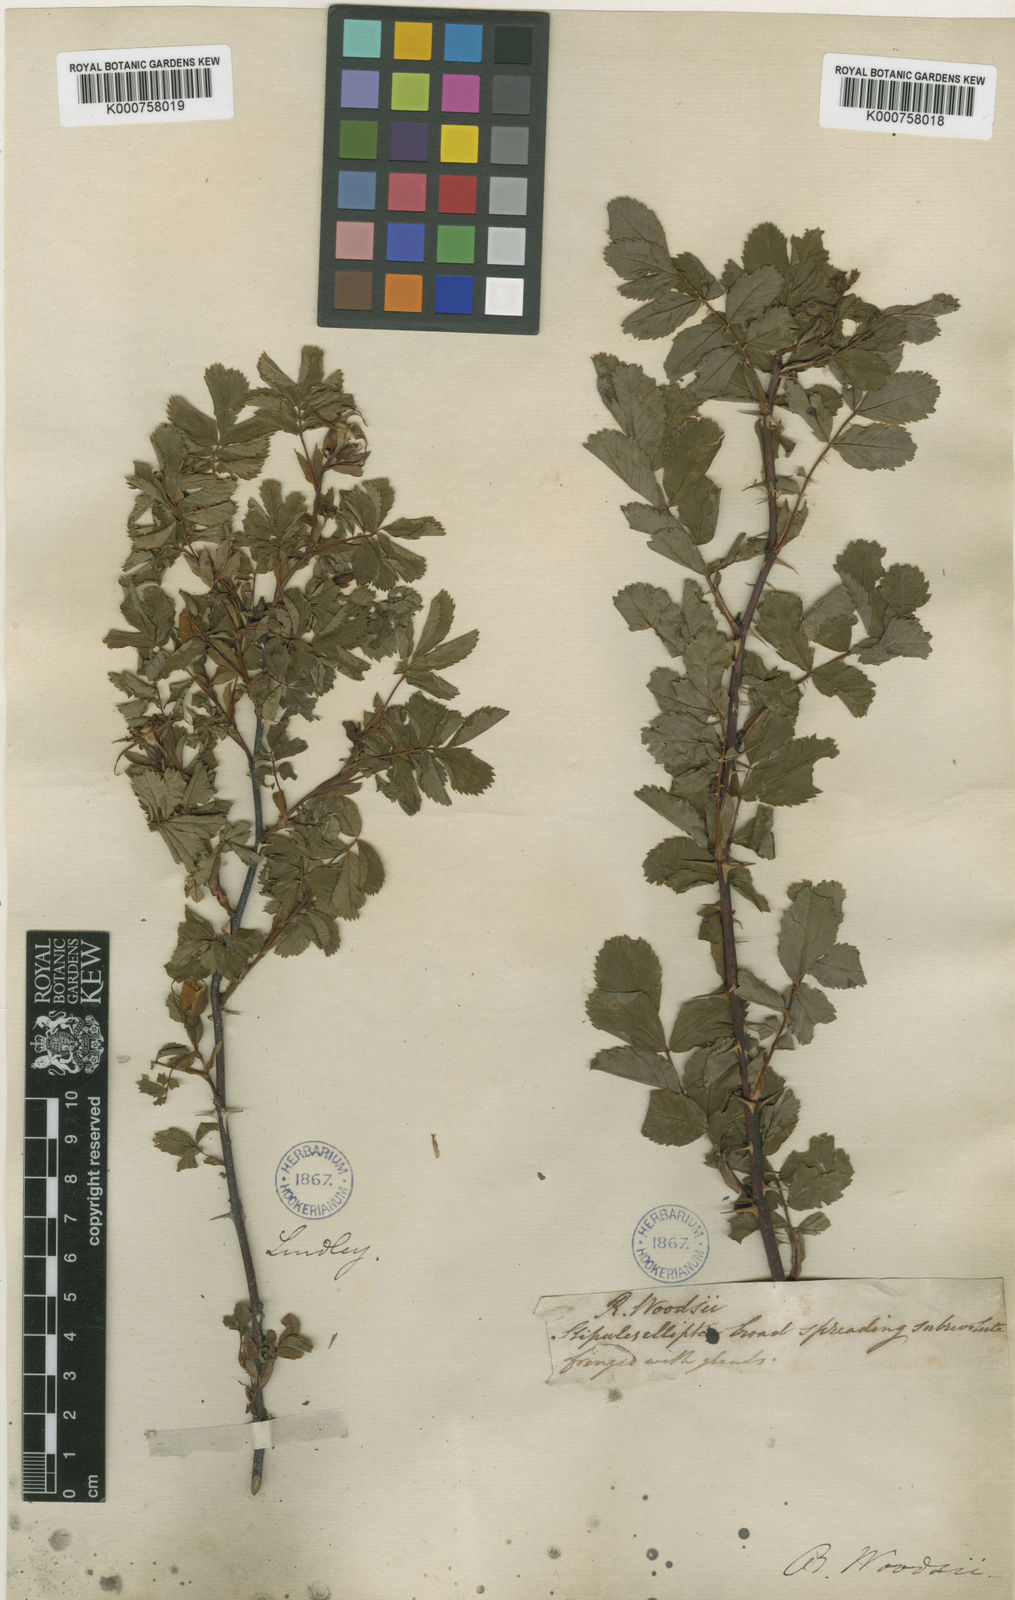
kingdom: Plantae
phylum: Tracheophyta
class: Magnoliopsida
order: Rosales
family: Rosaceae
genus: Rosa
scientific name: Rosa woodsii
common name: Woods's rose
